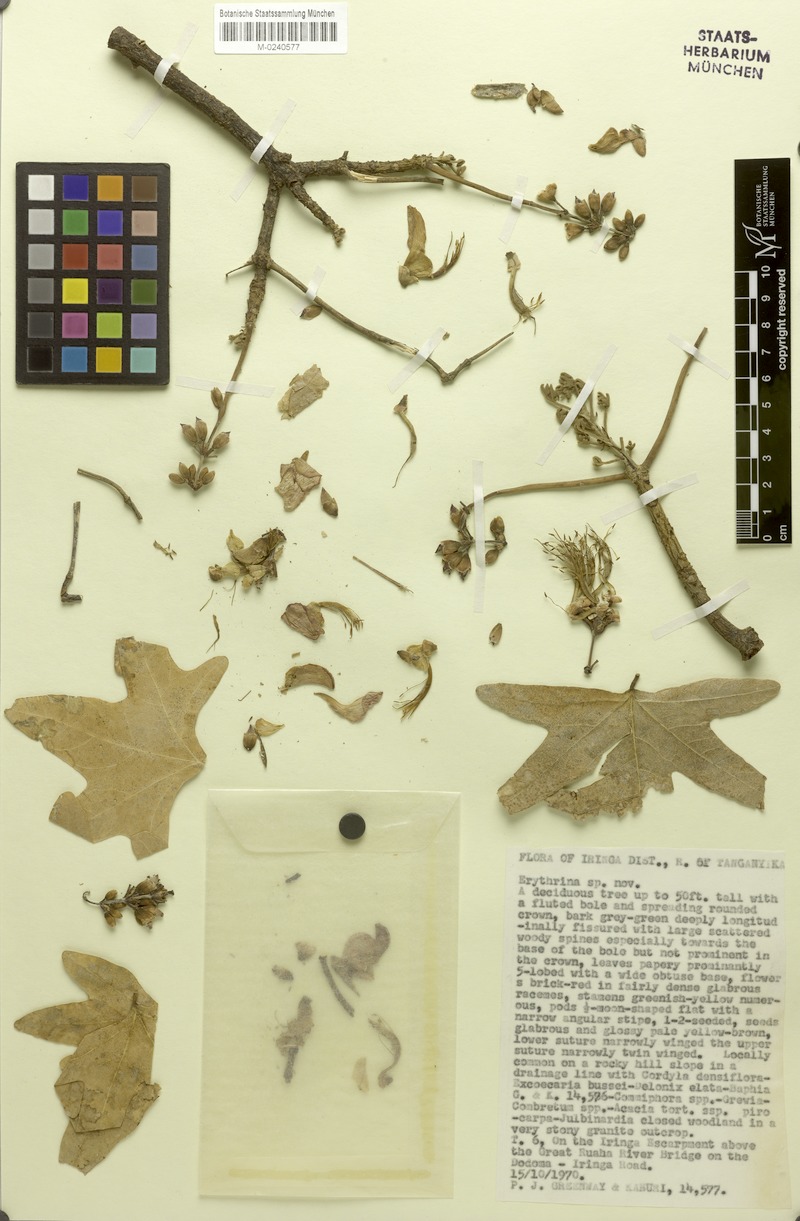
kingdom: Plantae
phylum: Tracheophyta
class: Magnoliopsida
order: Fabales
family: Fabaceae
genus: Erythrina
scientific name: Erythrina greenwayi
